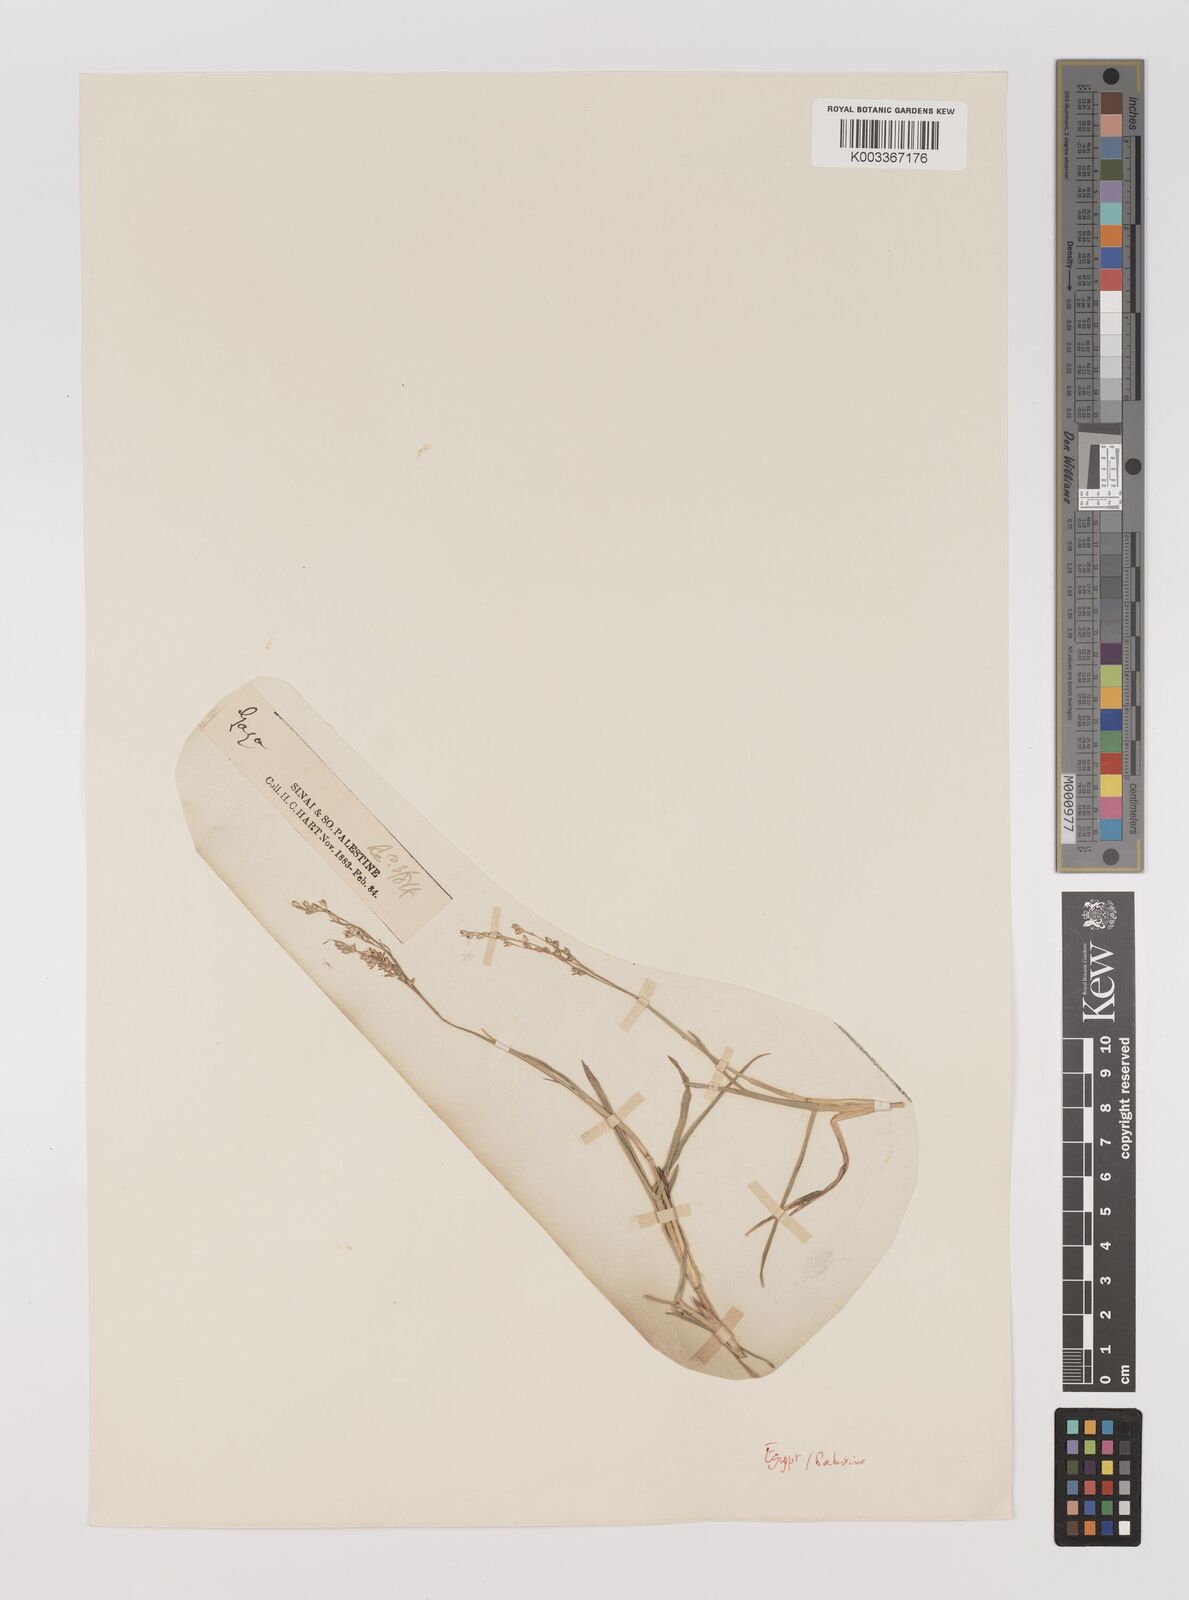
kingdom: Plantae
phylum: Tracheophyta
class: Liliopsida
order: Poales
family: Poaceae
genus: Panicum
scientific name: Panicum repens
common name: Torpedo grass
